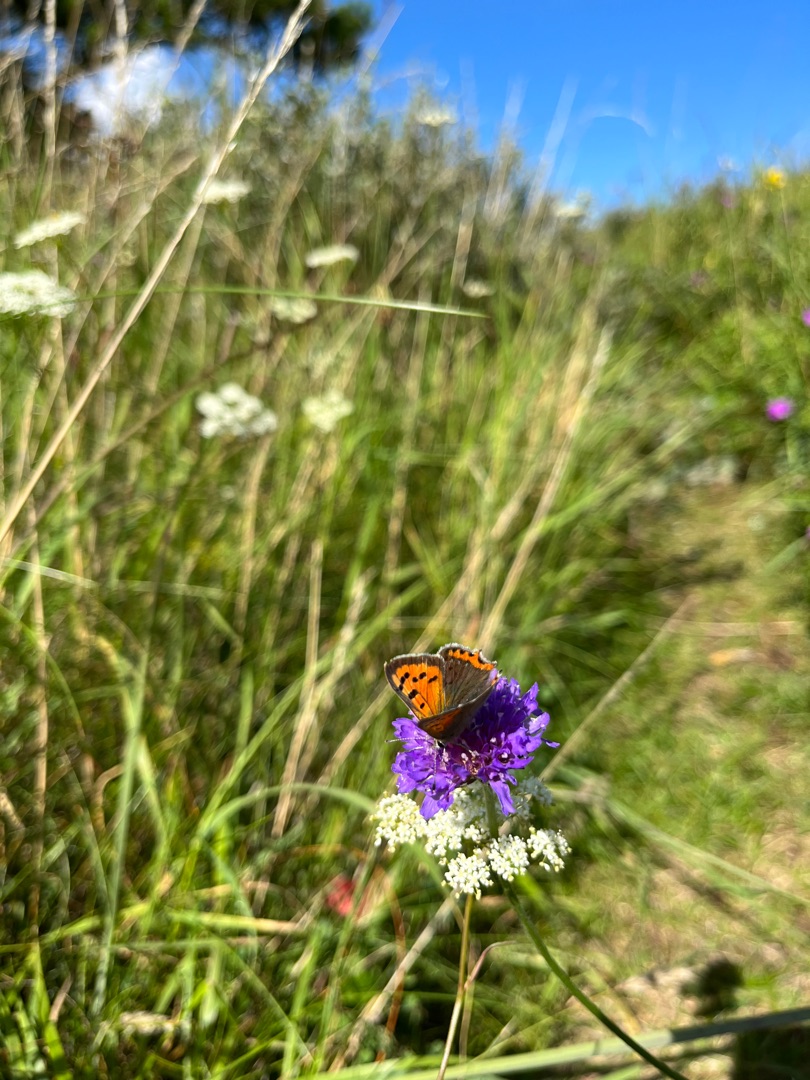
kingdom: Animalia
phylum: Arthropoda
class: Insecta
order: Lepidoptera
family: Lycaenidae
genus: Lycaena
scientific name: Lycaena phlaeas
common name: Lille ildfugl
